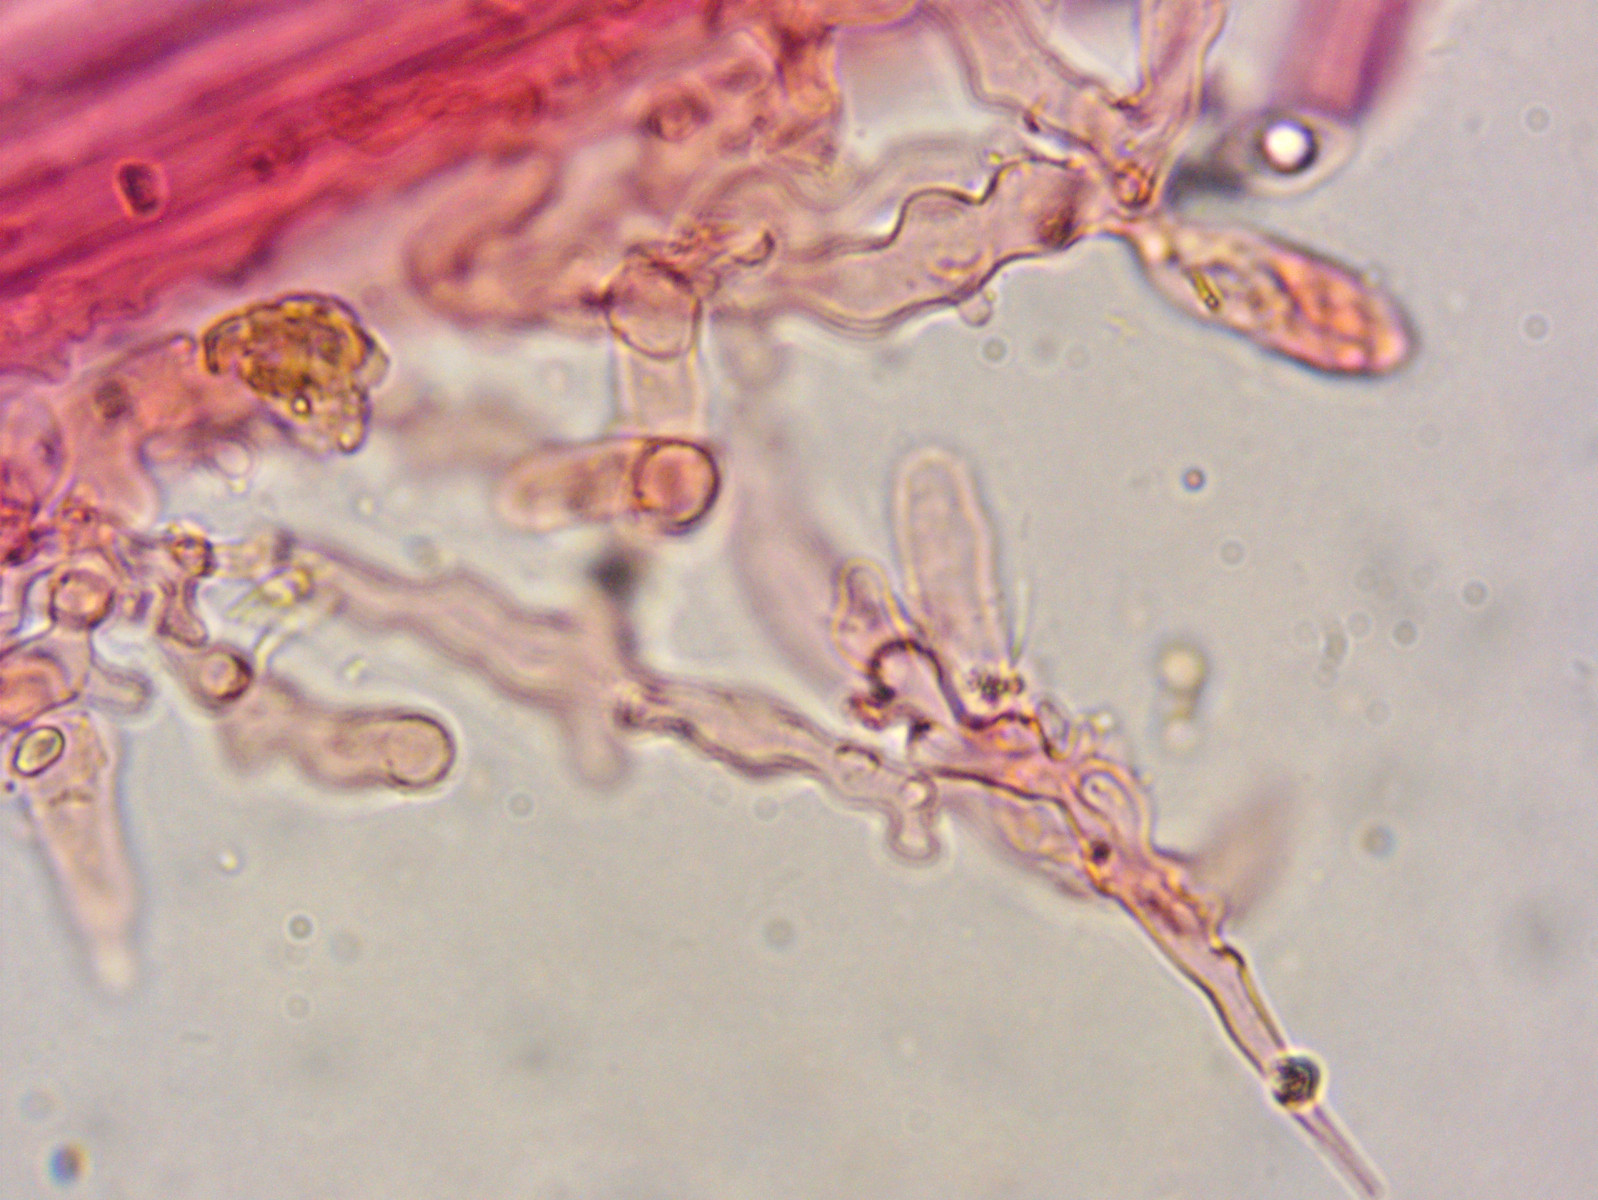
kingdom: Fungi
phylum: Basidiomycota
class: Agaricomycetes
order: Agaricales
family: Porotheleaceae
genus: Phloeomana
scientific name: Phloeomana hiemalis
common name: sen huesvamp
